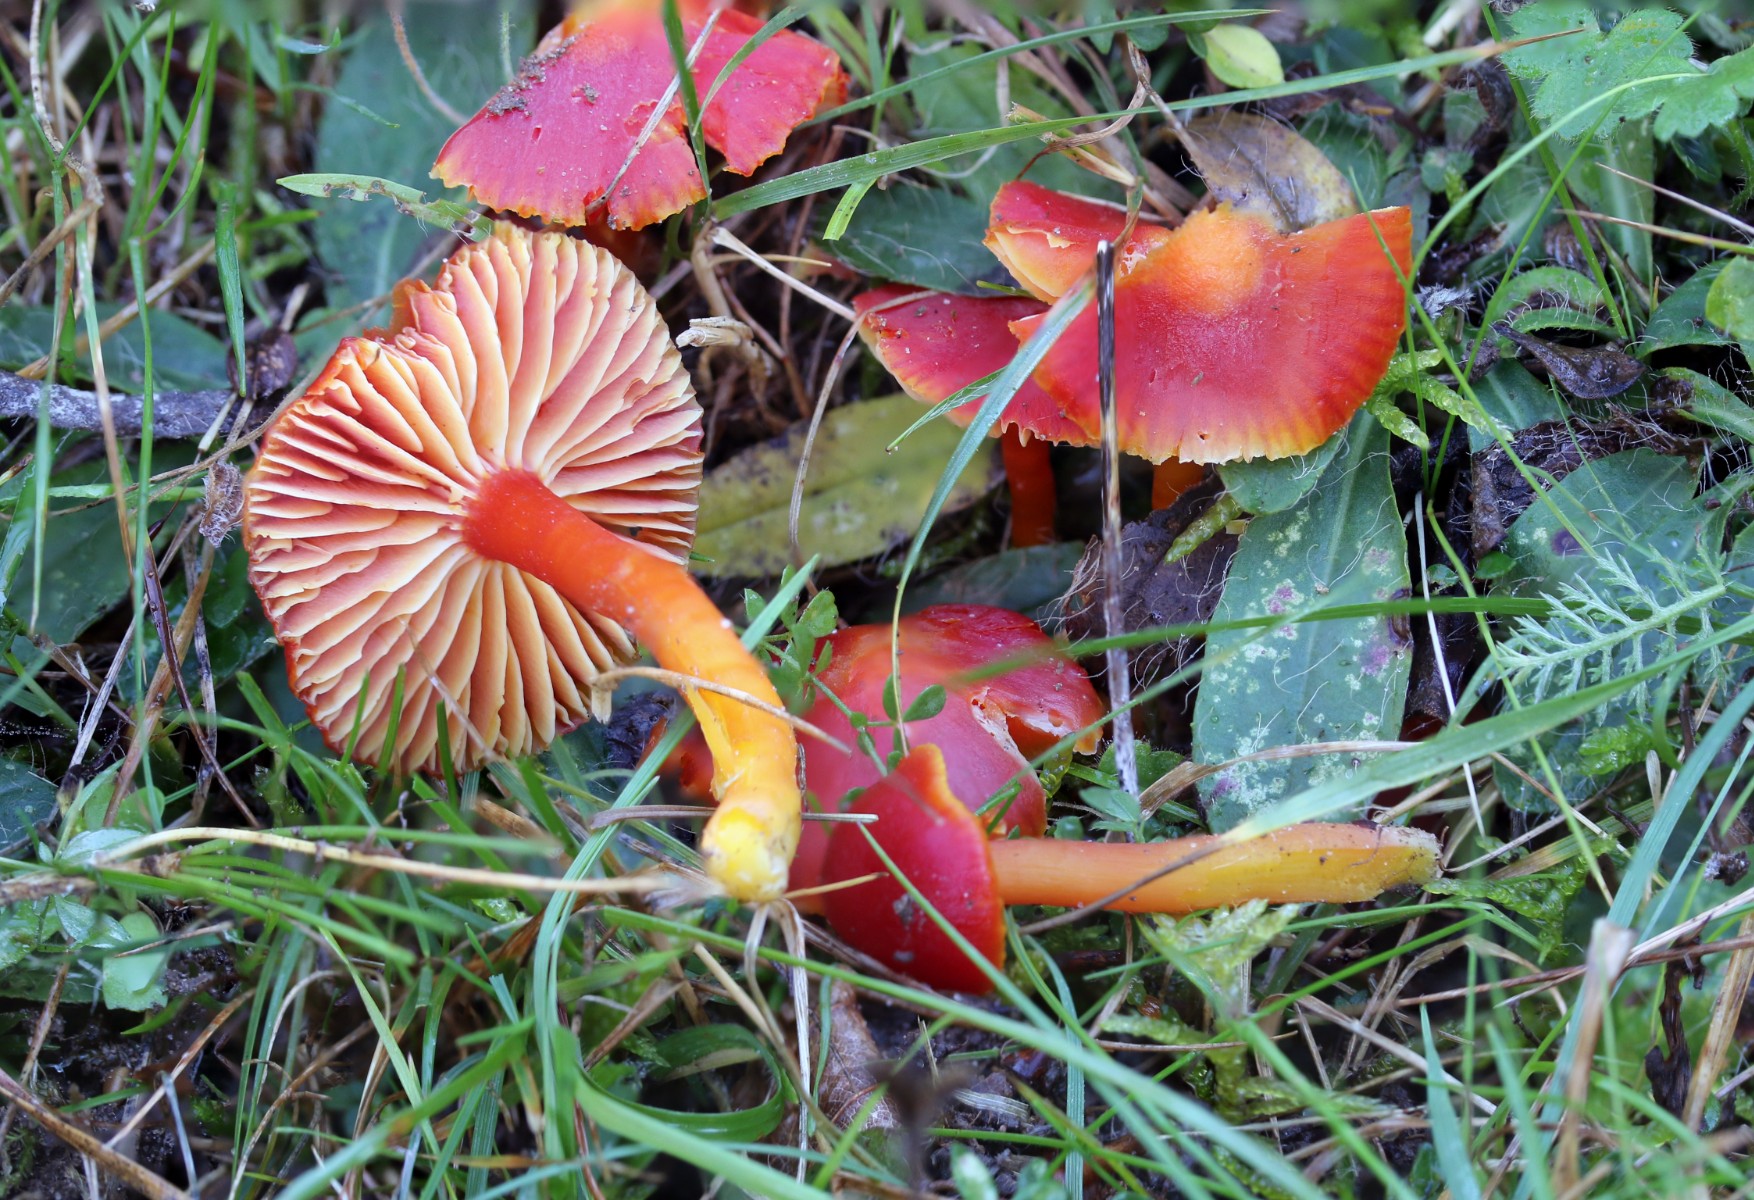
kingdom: Fungi
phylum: Basidiomycota
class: Agaricomycetes
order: Agaricales
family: Hygrophoraceae
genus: Hygrocybe
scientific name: Hygrocybe coccinea
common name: cinnober-vokshat
